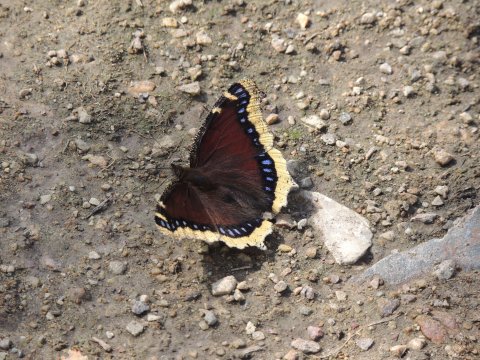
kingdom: Animalia
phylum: Arthropoda
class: Insecta
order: Lepidoptera
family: Nymphalidae
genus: Nymphalis
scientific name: Nymphalis antiopa
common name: Mourning Cloak
